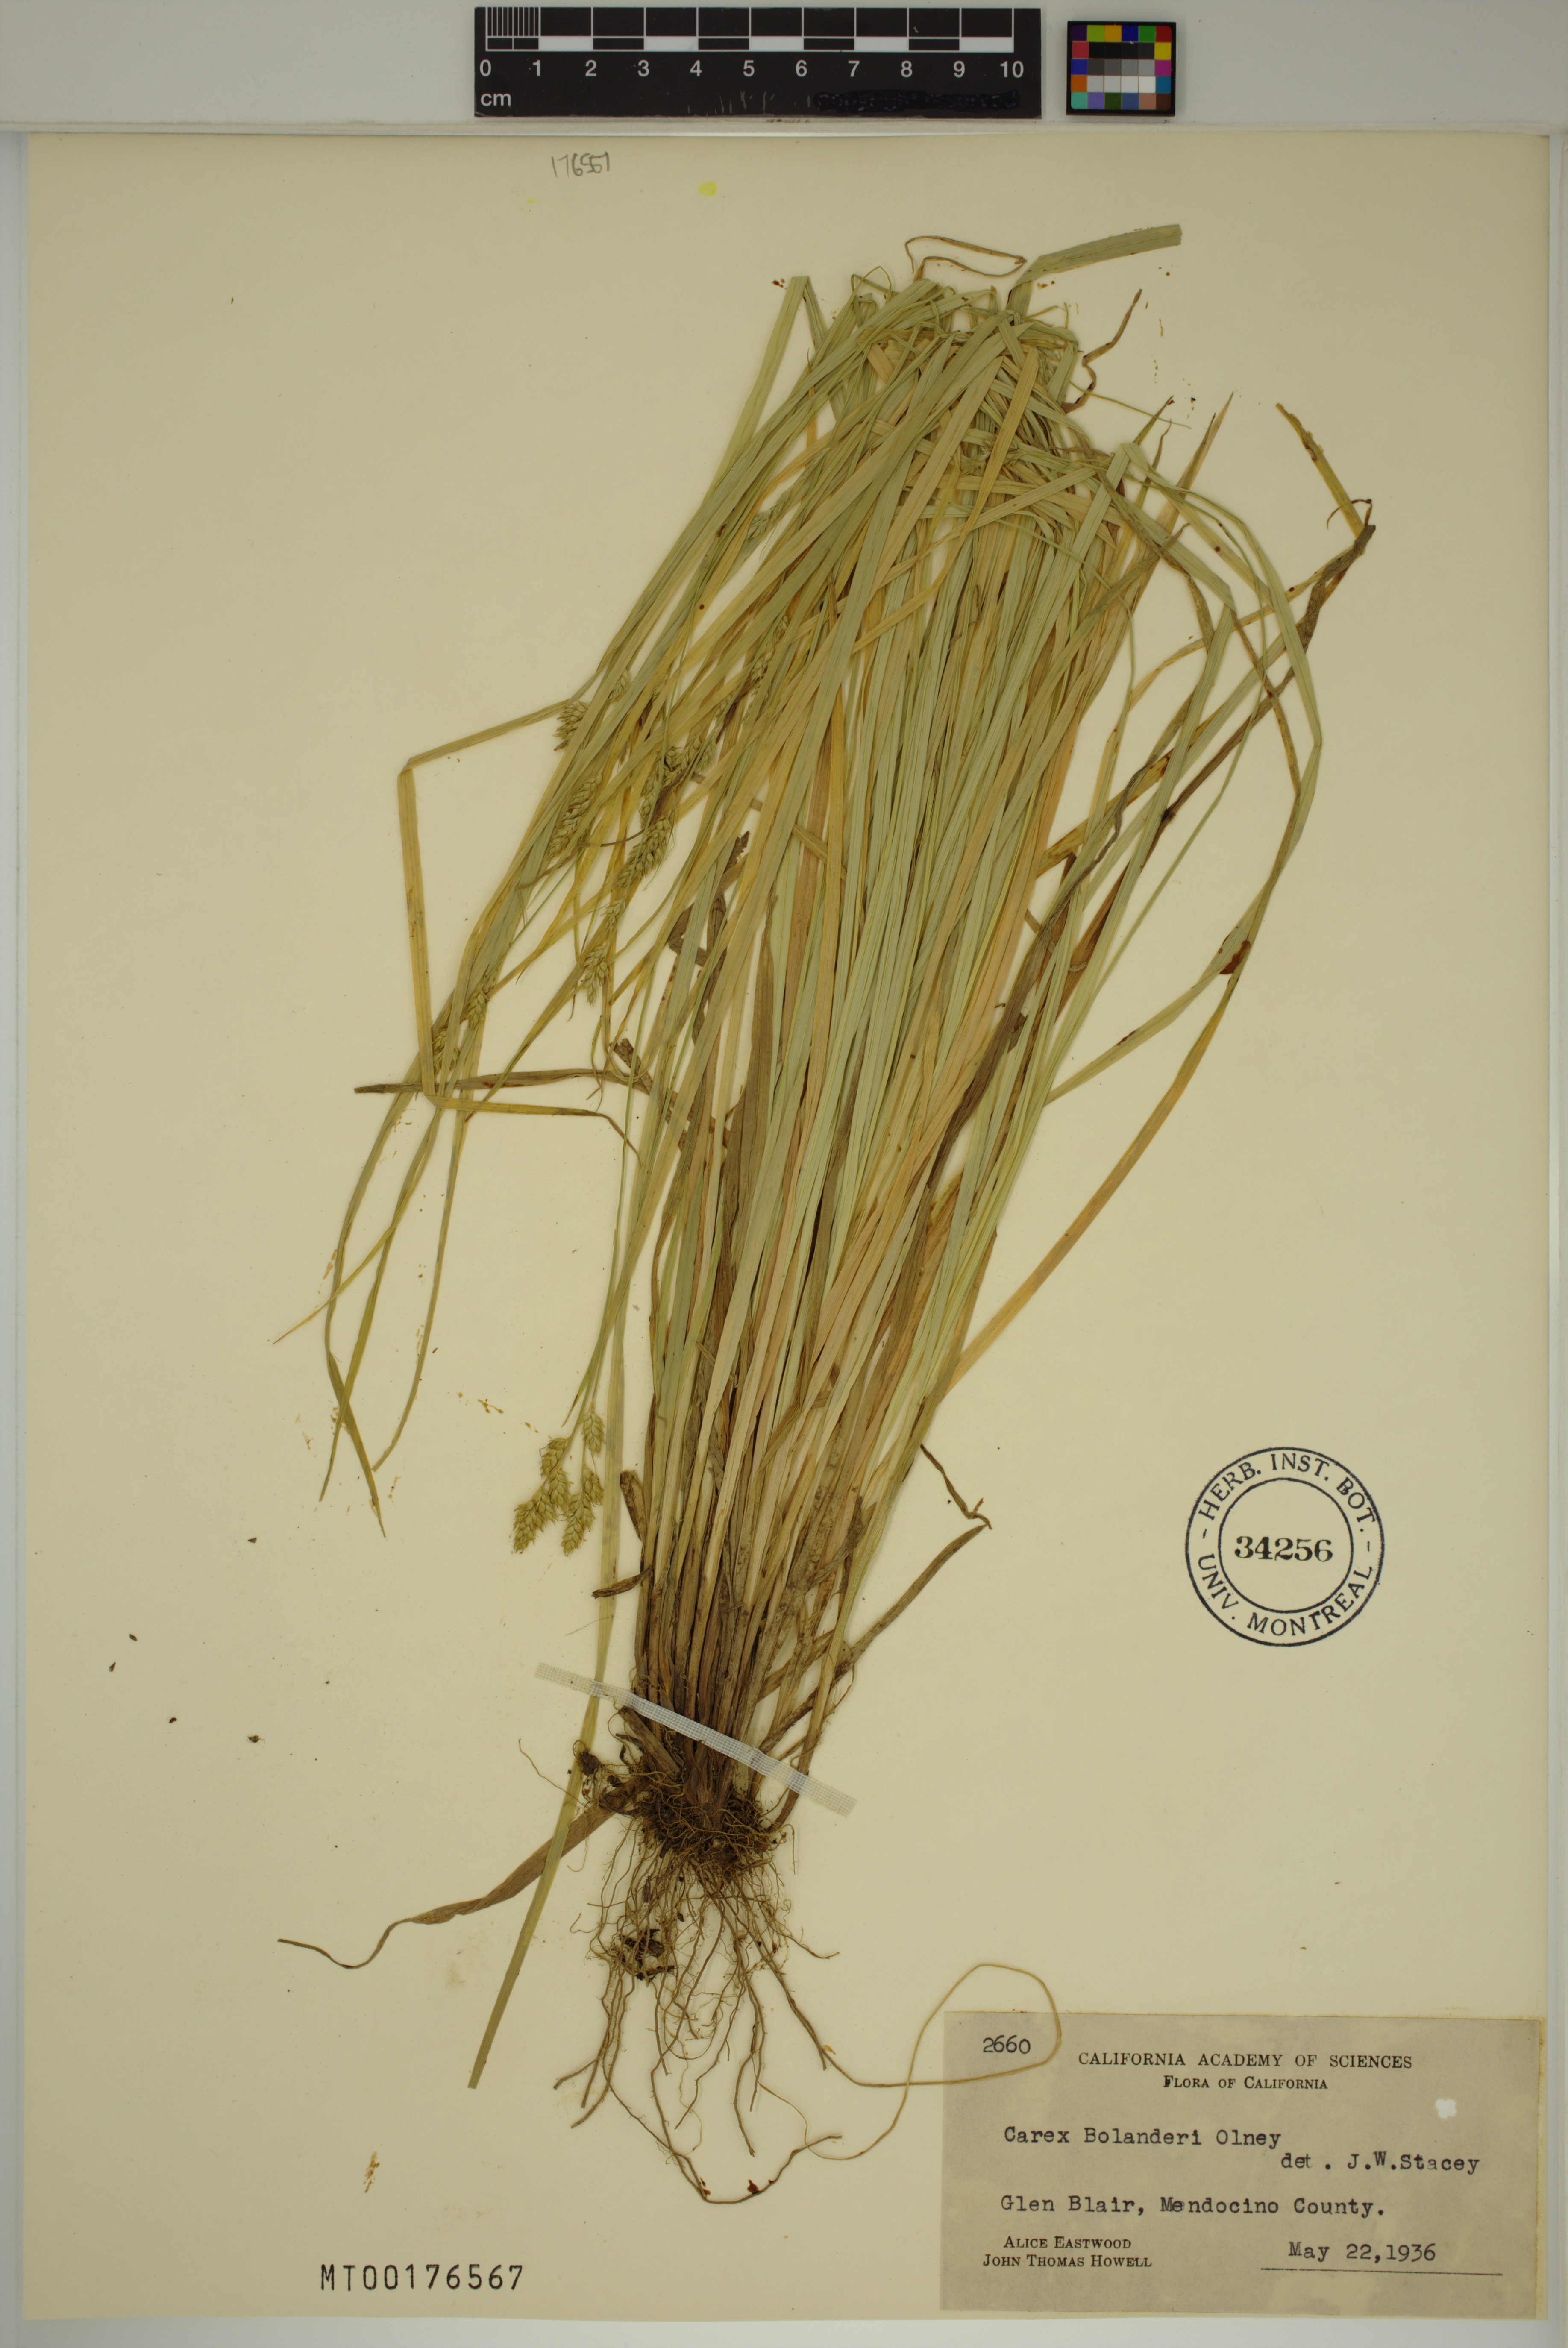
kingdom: Plantae
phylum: Tracheophyta
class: Liliopsida
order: Poales
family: Cyperaceae
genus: Carex
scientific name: Carex bolanderi
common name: Bolander's sedge
